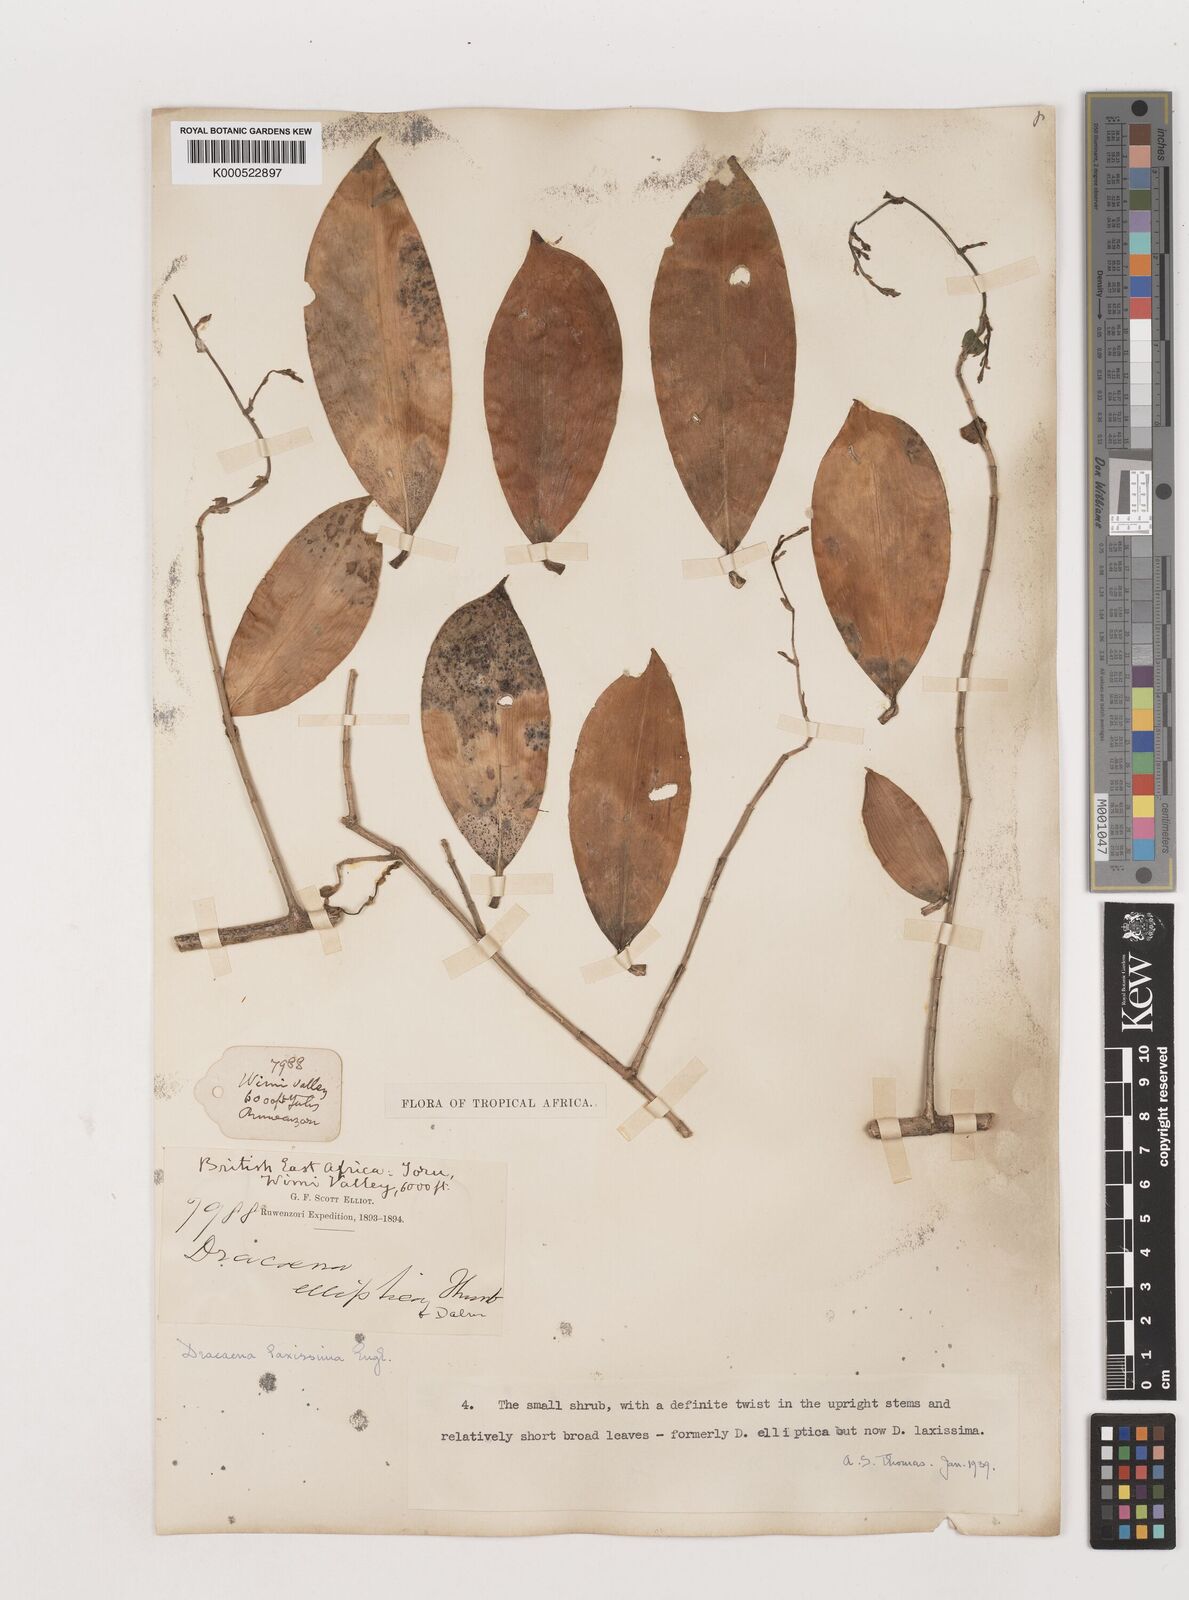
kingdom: Plantae
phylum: Tracheophyta
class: Liliopsida
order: Asparagales
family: Asparagaceae
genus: Dracaena
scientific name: Dracaena laxissima
